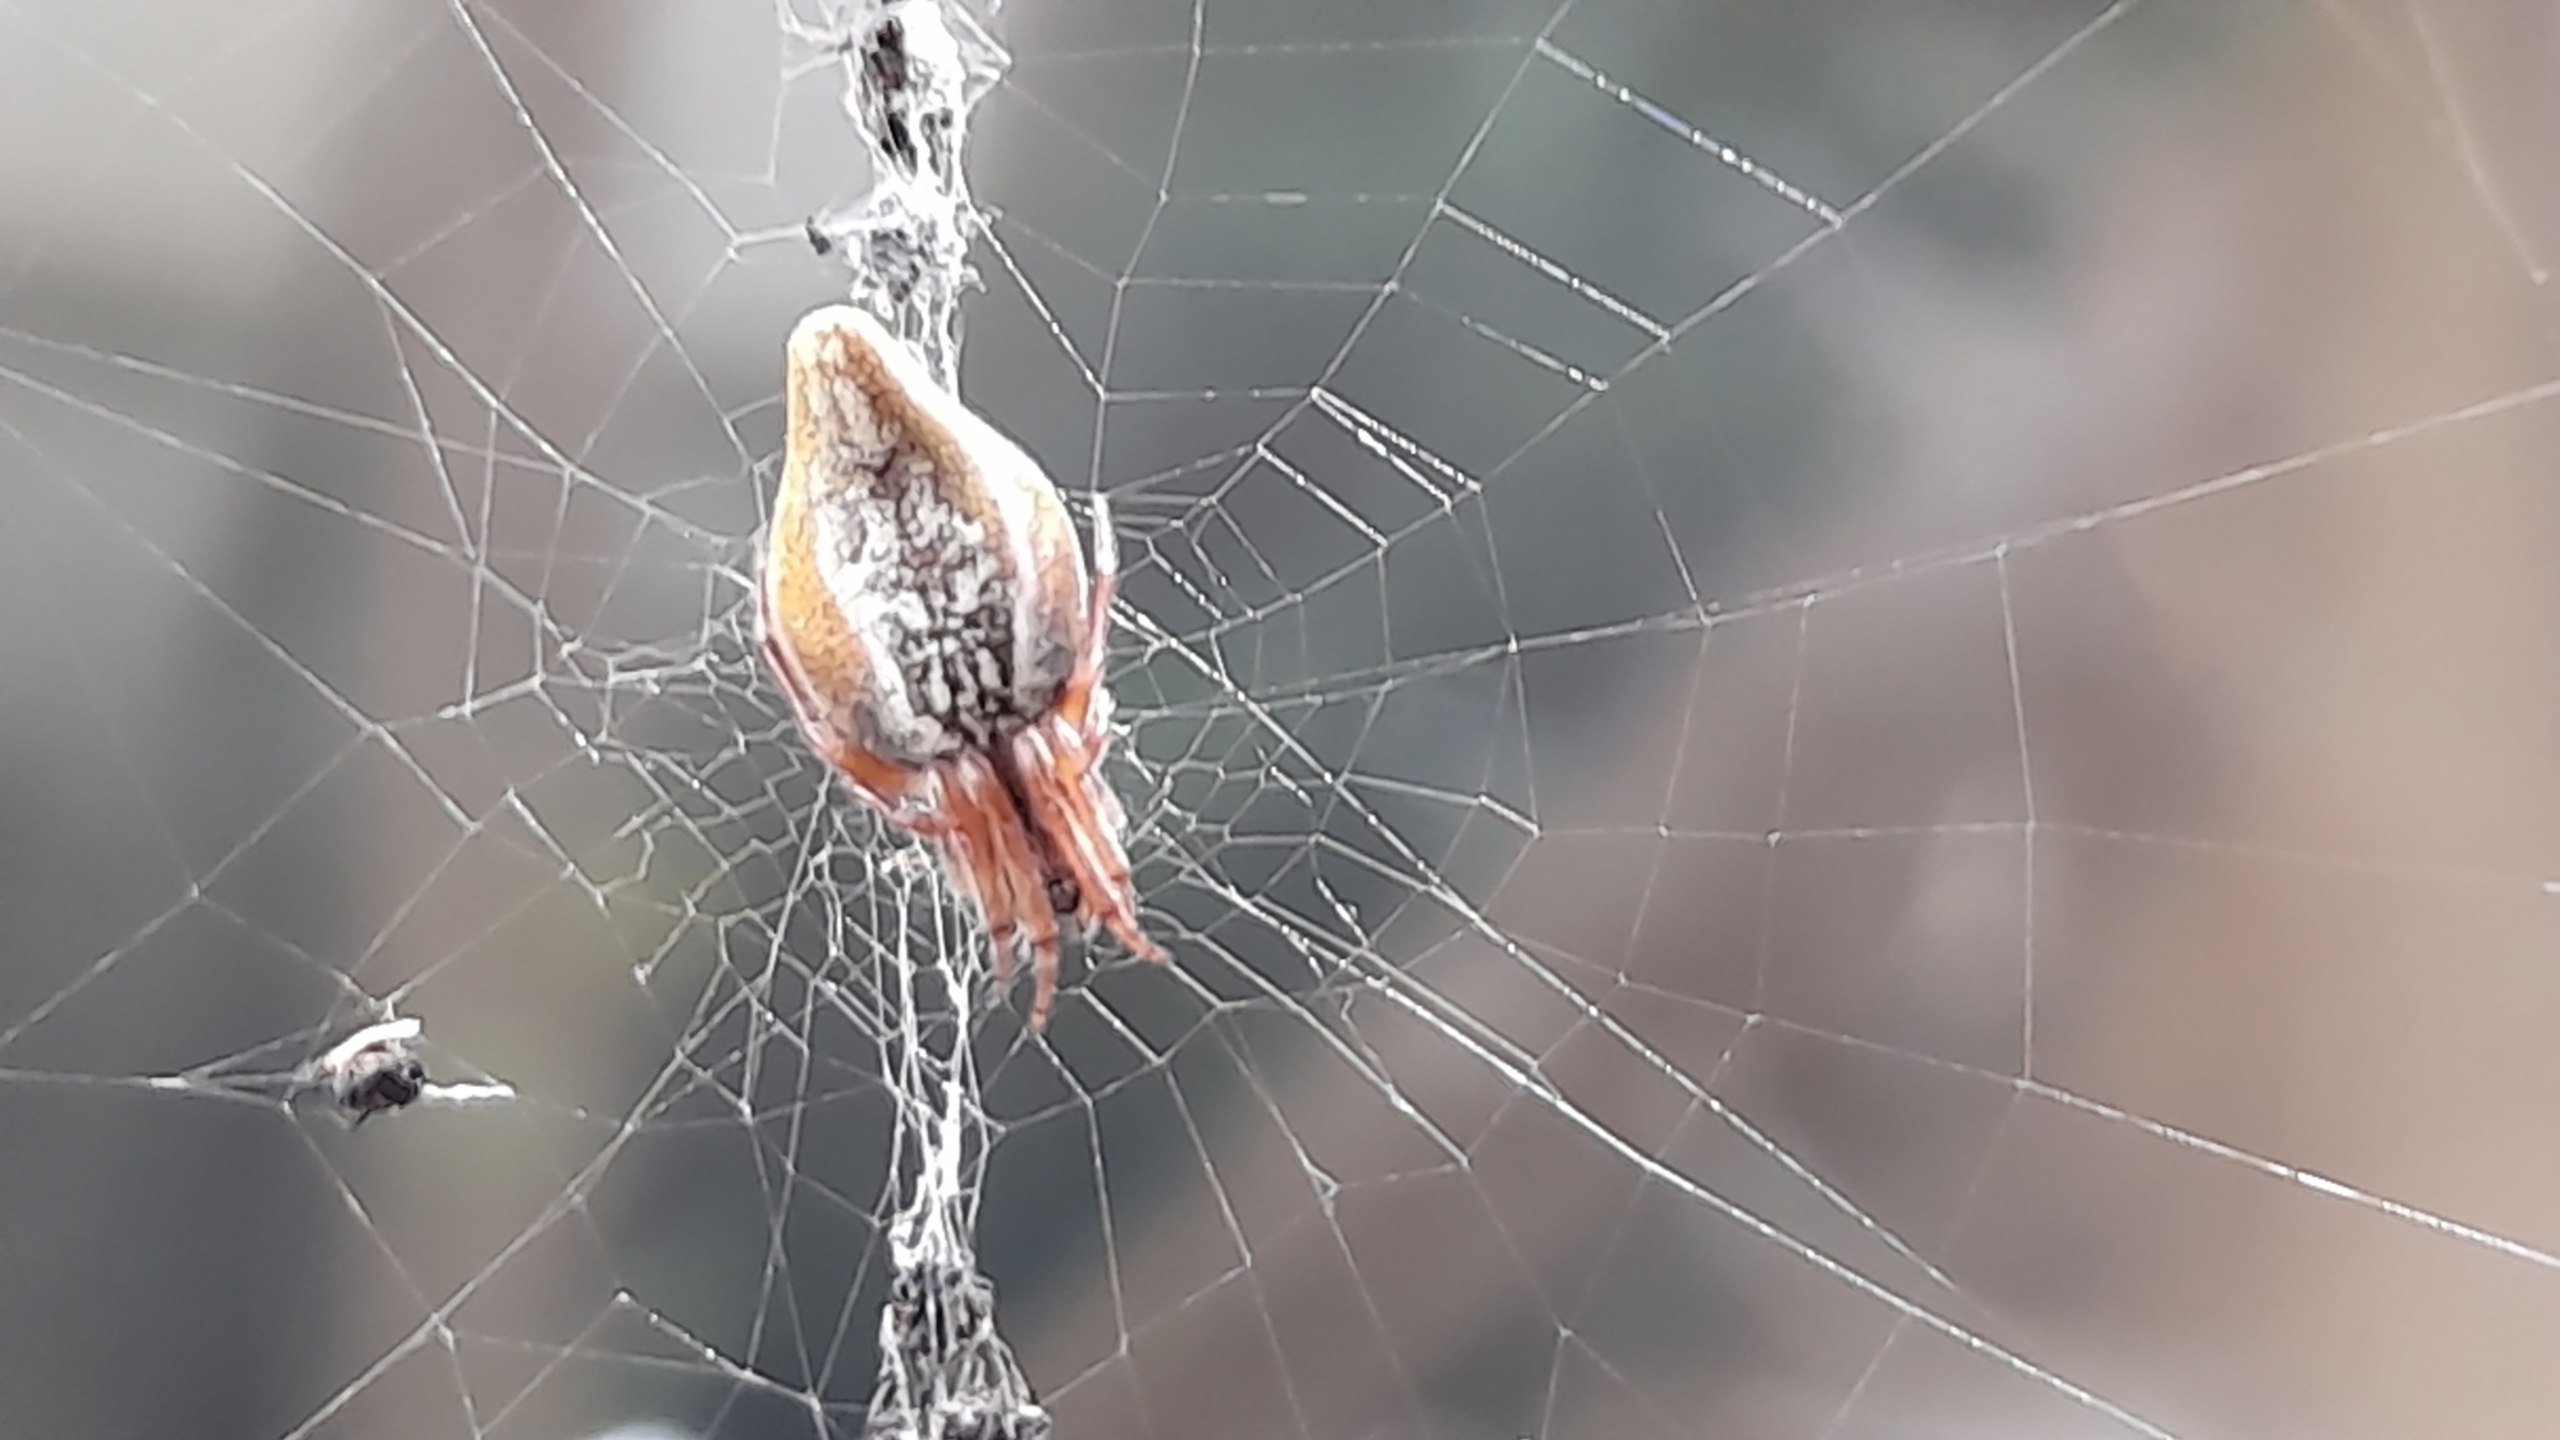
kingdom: Animalia
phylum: Arthropoda
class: Arachnida
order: Araneae
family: Araneidae
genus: Cyclosa
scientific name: Cyclosa conica
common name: Keglerumpe
